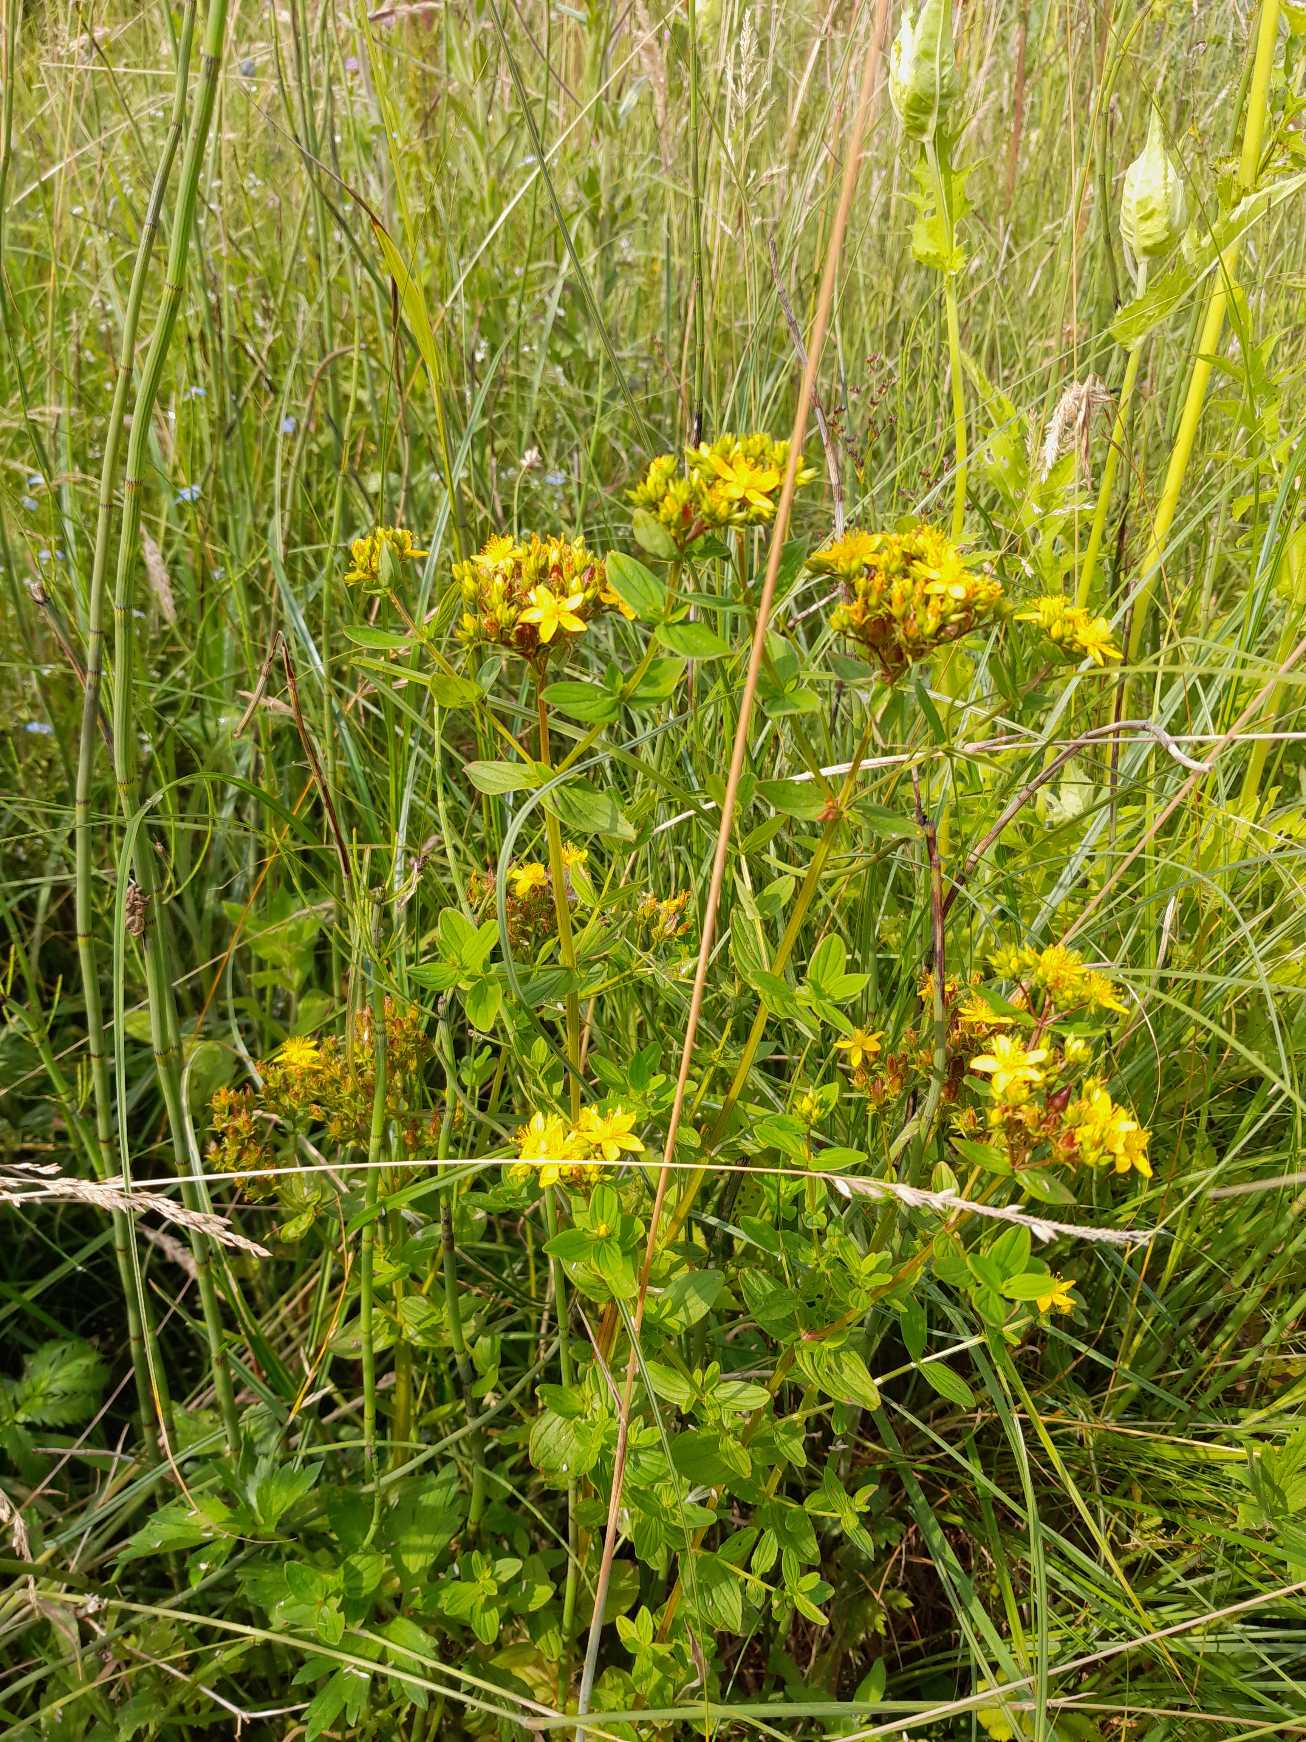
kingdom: Plantae
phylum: Tracheophyta
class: Magnoliopsida
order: Malpighiales
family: Hypericaceae
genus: Hypericum
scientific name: Hypericum tetrapterum
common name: Vinget perikon
